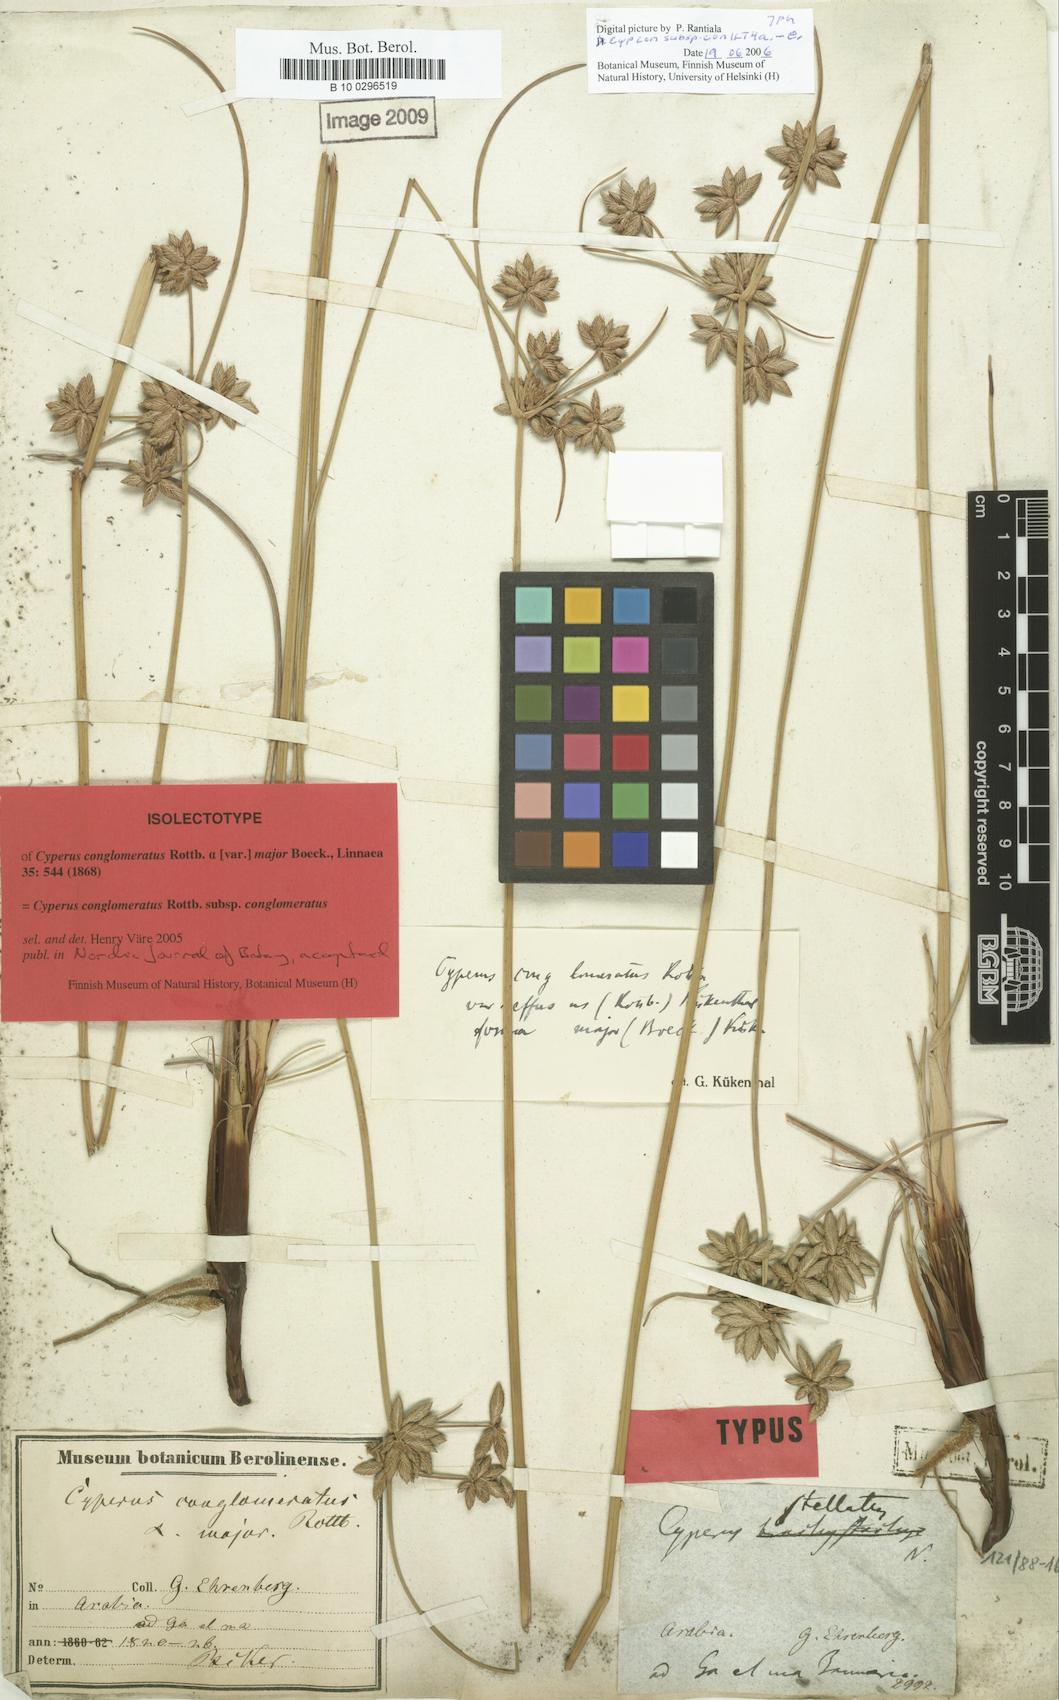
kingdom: Plantae
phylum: Tracheophyta
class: Liliopsida
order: Poales
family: Cyperaceae
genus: Cyperus
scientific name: Cyperus conglomeratus
